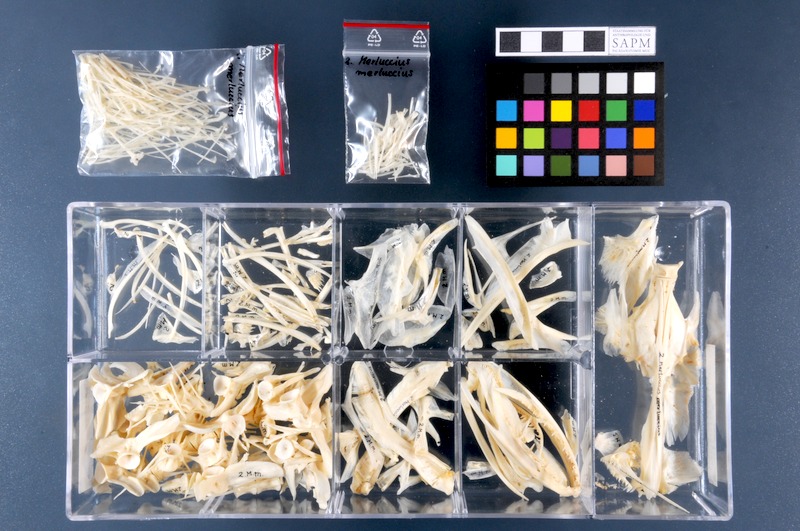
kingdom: Animalia
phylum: Chordata
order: Gadiformes
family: Merlucciidae
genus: Merluccius
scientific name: Merluccius merluccius
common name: European hake
